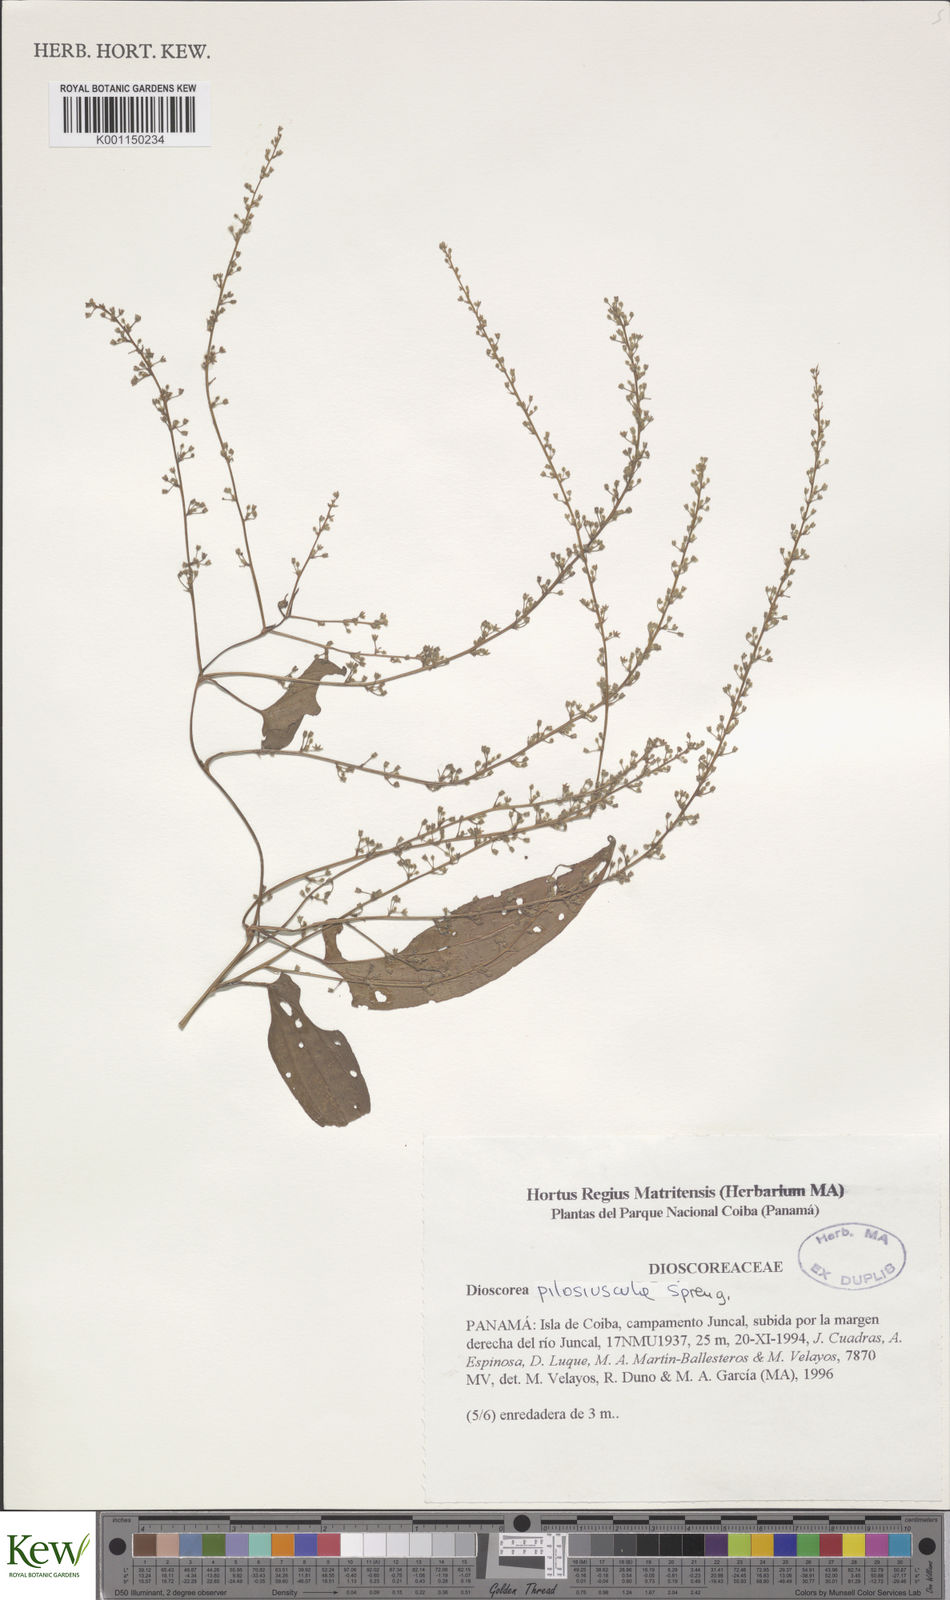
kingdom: Plantae
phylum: Tracheophyta
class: Liliopsida
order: Dioscoreales
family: Dioscoreaceae
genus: Dioscorea
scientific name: Dioscorea pilosiuscula
